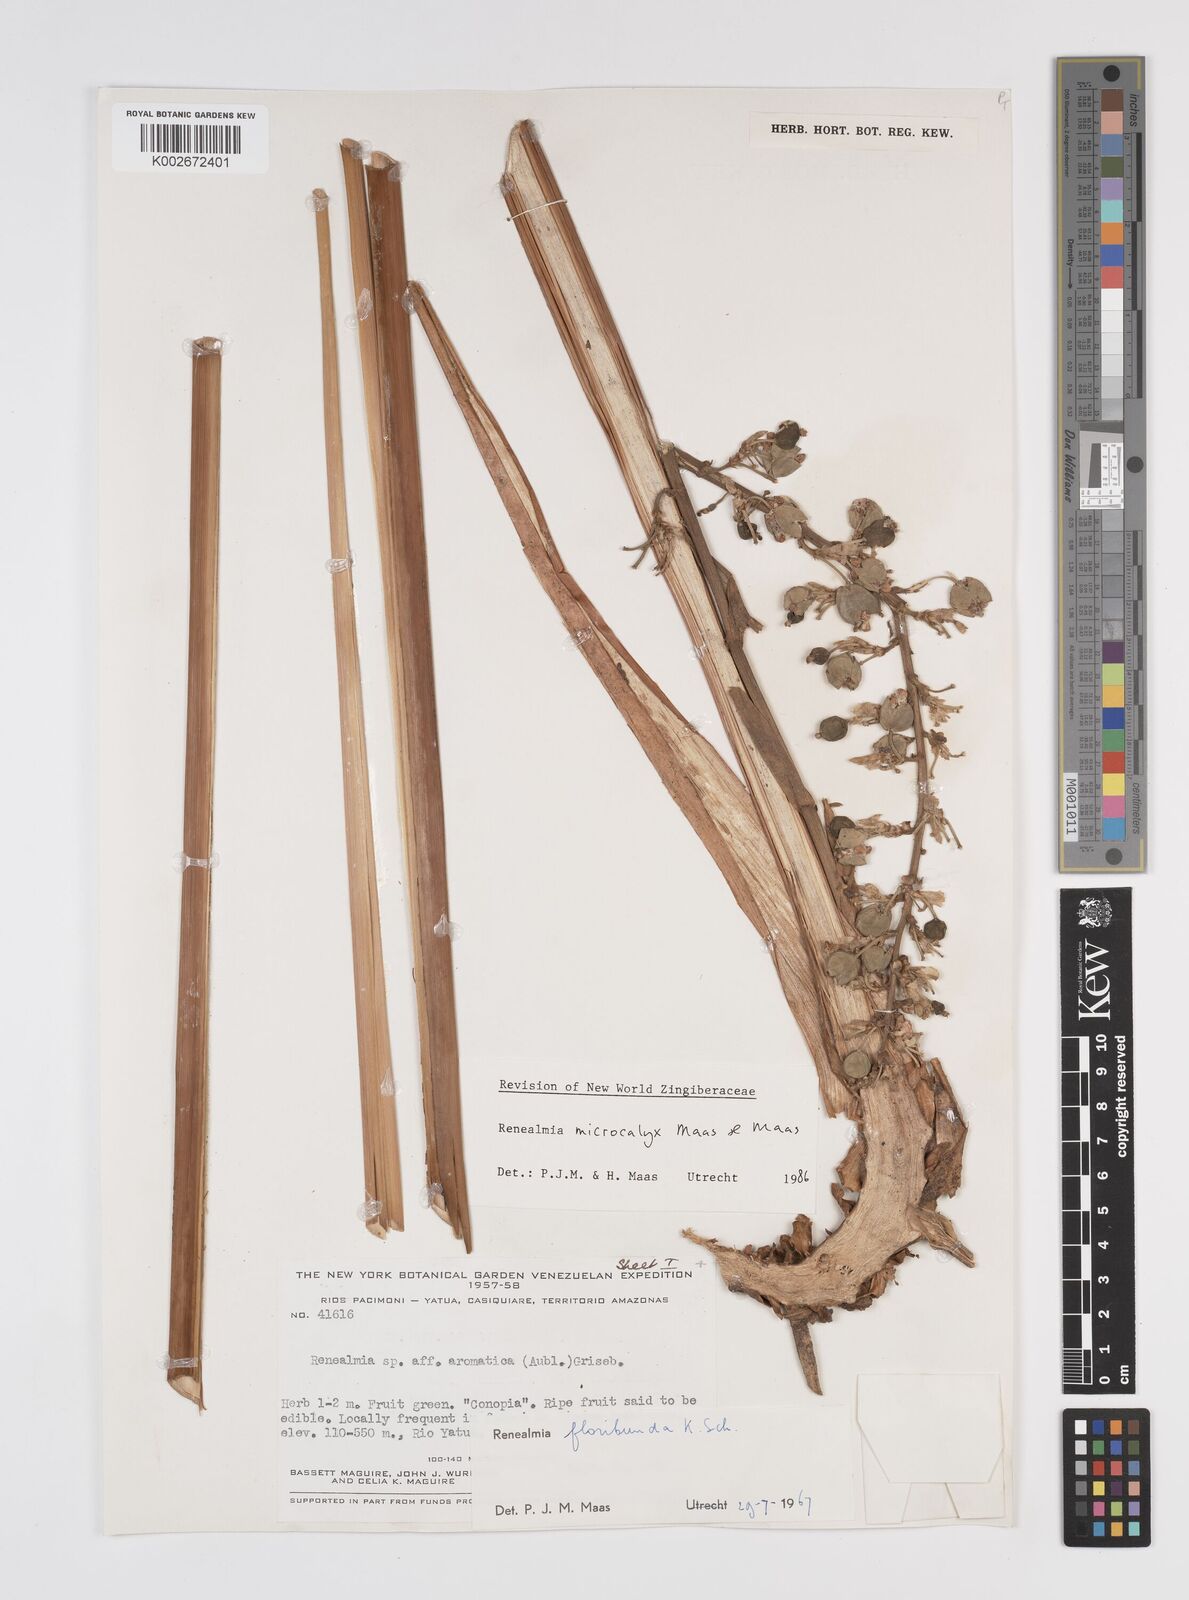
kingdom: Plantae
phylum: Tracheophyta
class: Liliopsida
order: Zingiberales
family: Zingiberaceae
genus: Renealmia
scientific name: Renealmia microcalyx
